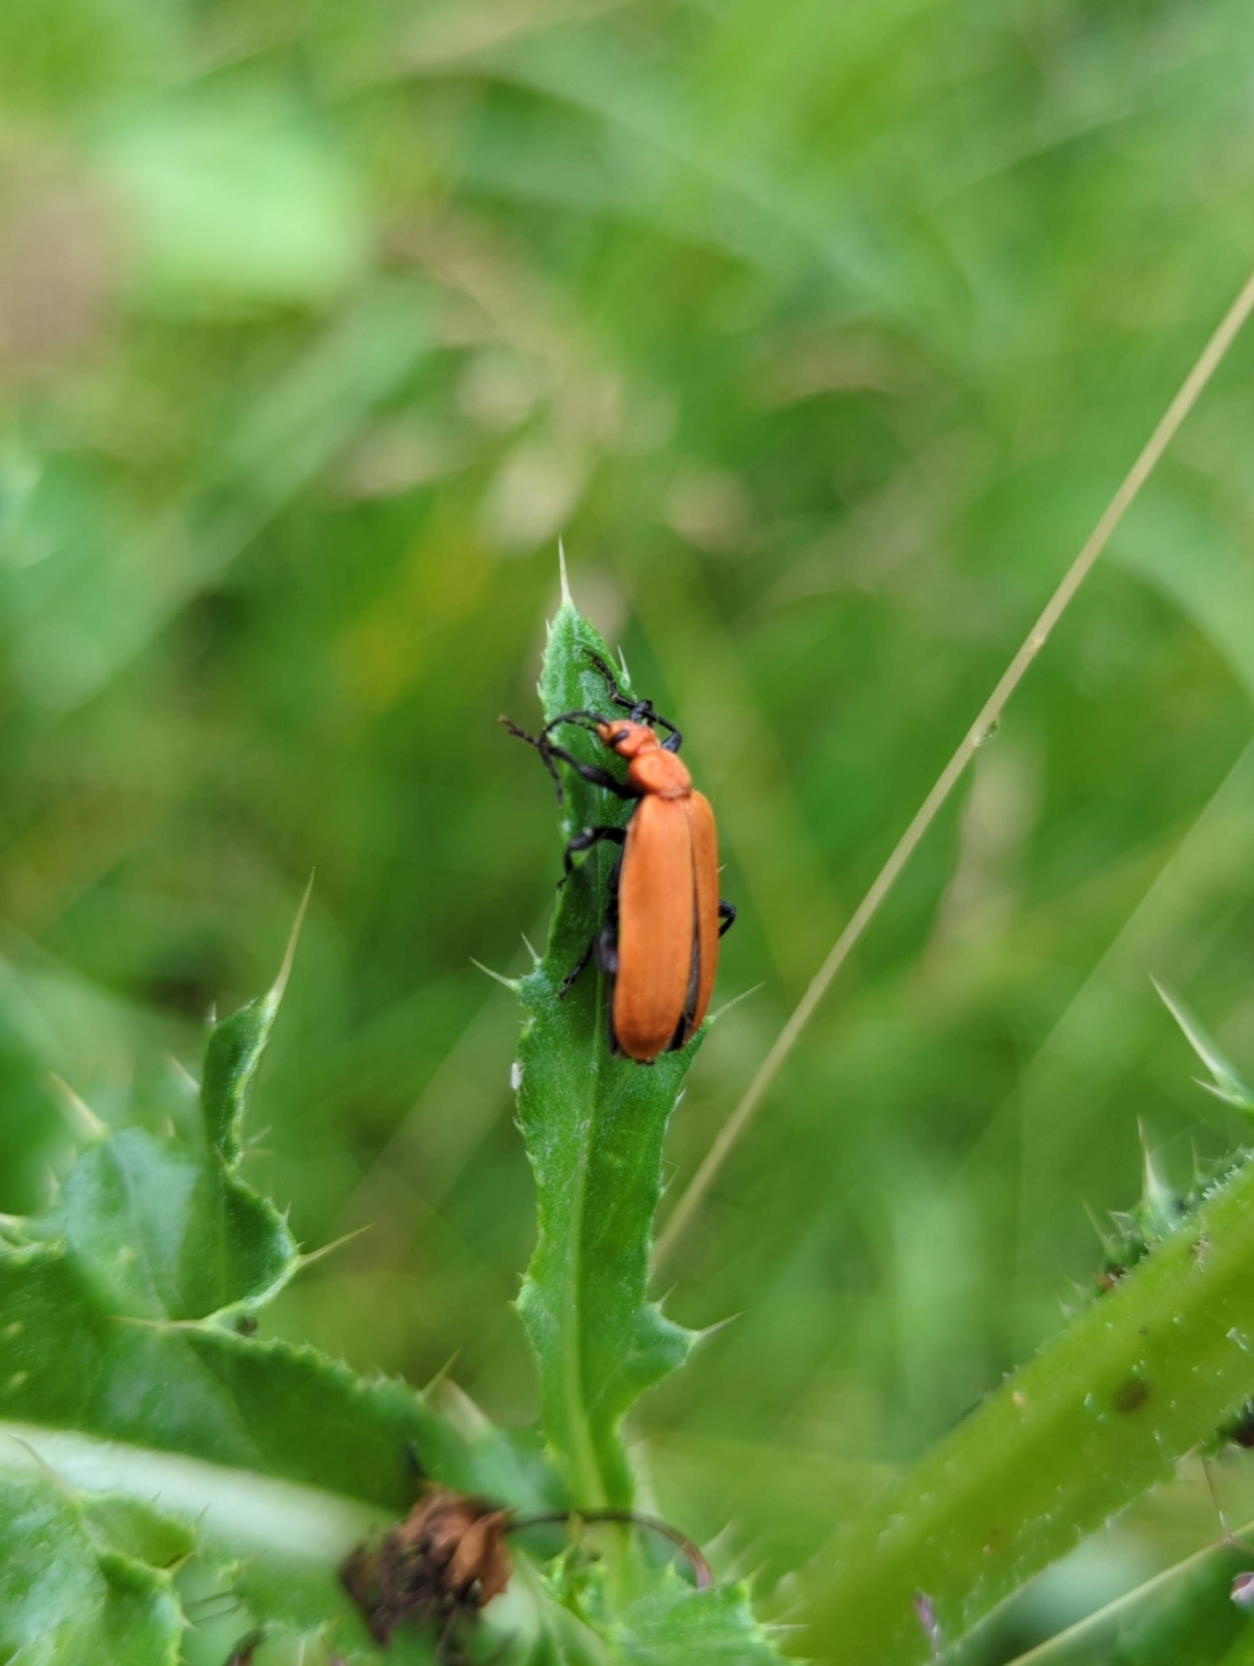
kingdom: Animalia
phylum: Arthropoda
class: Insecta
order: Coleoptera
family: Pyrochroidae
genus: Pyrochroa
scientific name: Pyrochroa serraticornis
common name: Rødhovedet kardinalbille
